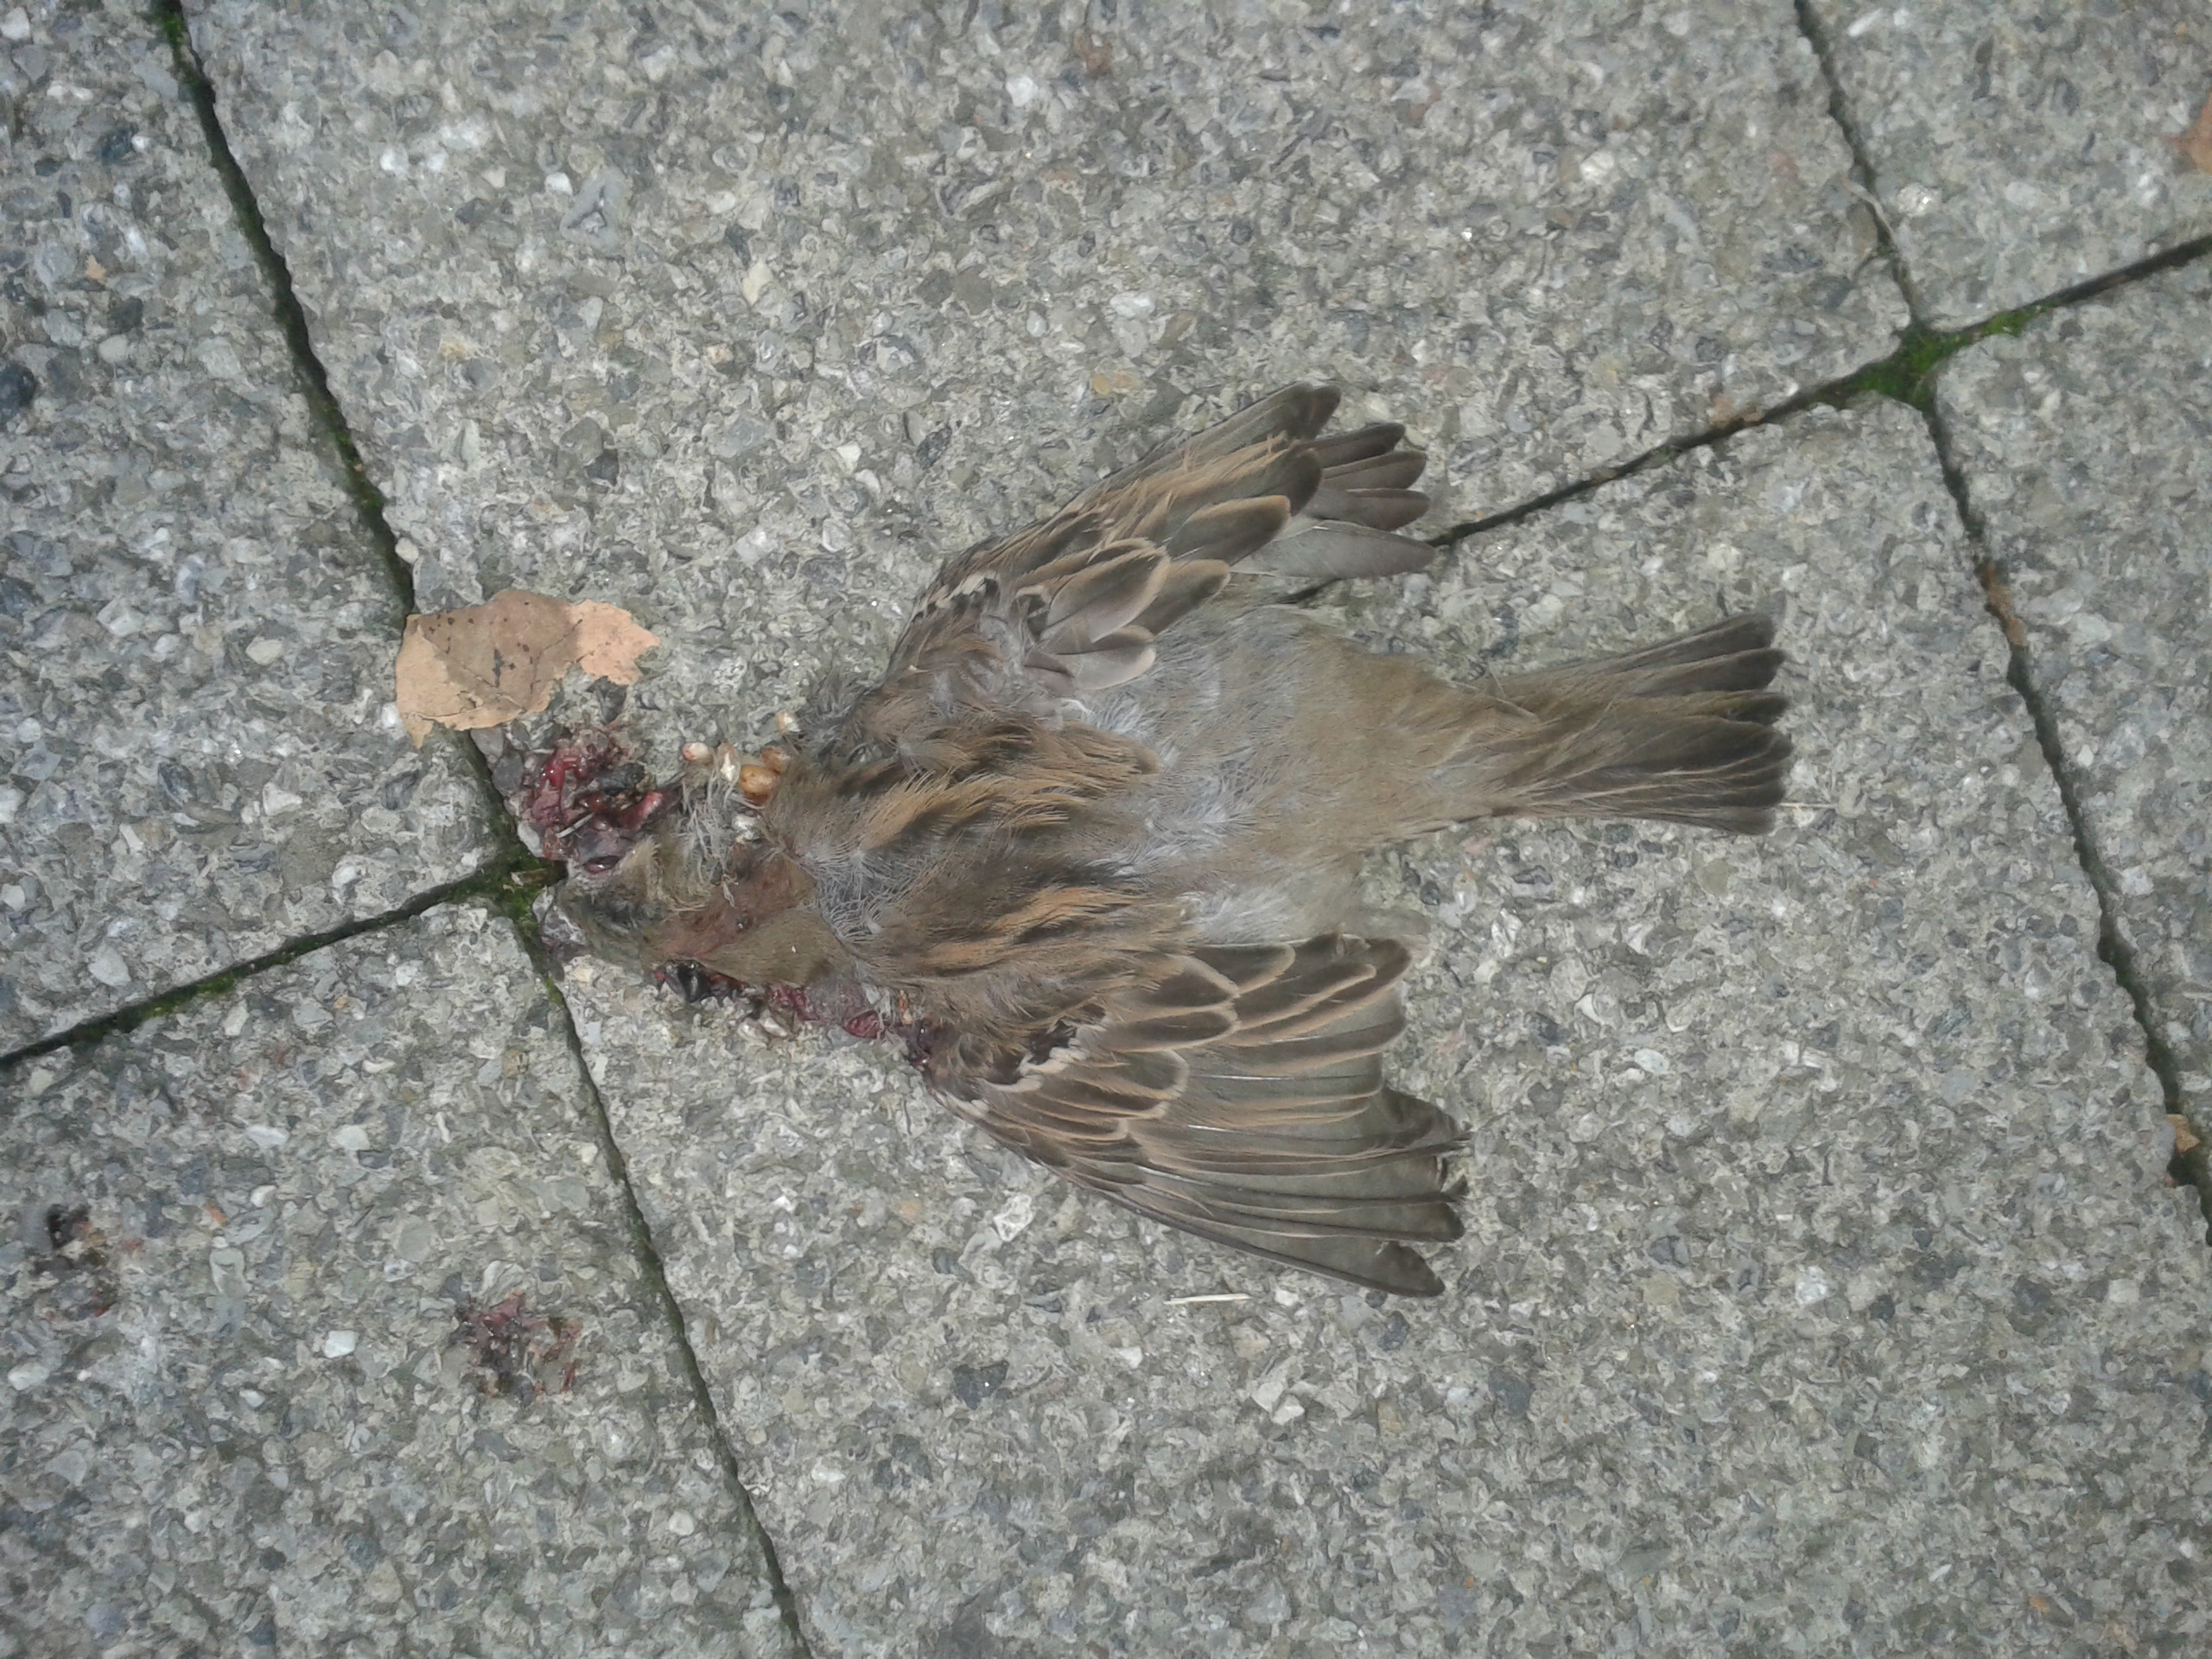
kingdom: Animalia
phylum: Chordata
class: Aves
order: Passeriformes
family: Passeridae
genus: Passer
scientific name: Passer domesticus
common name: House sparrow
